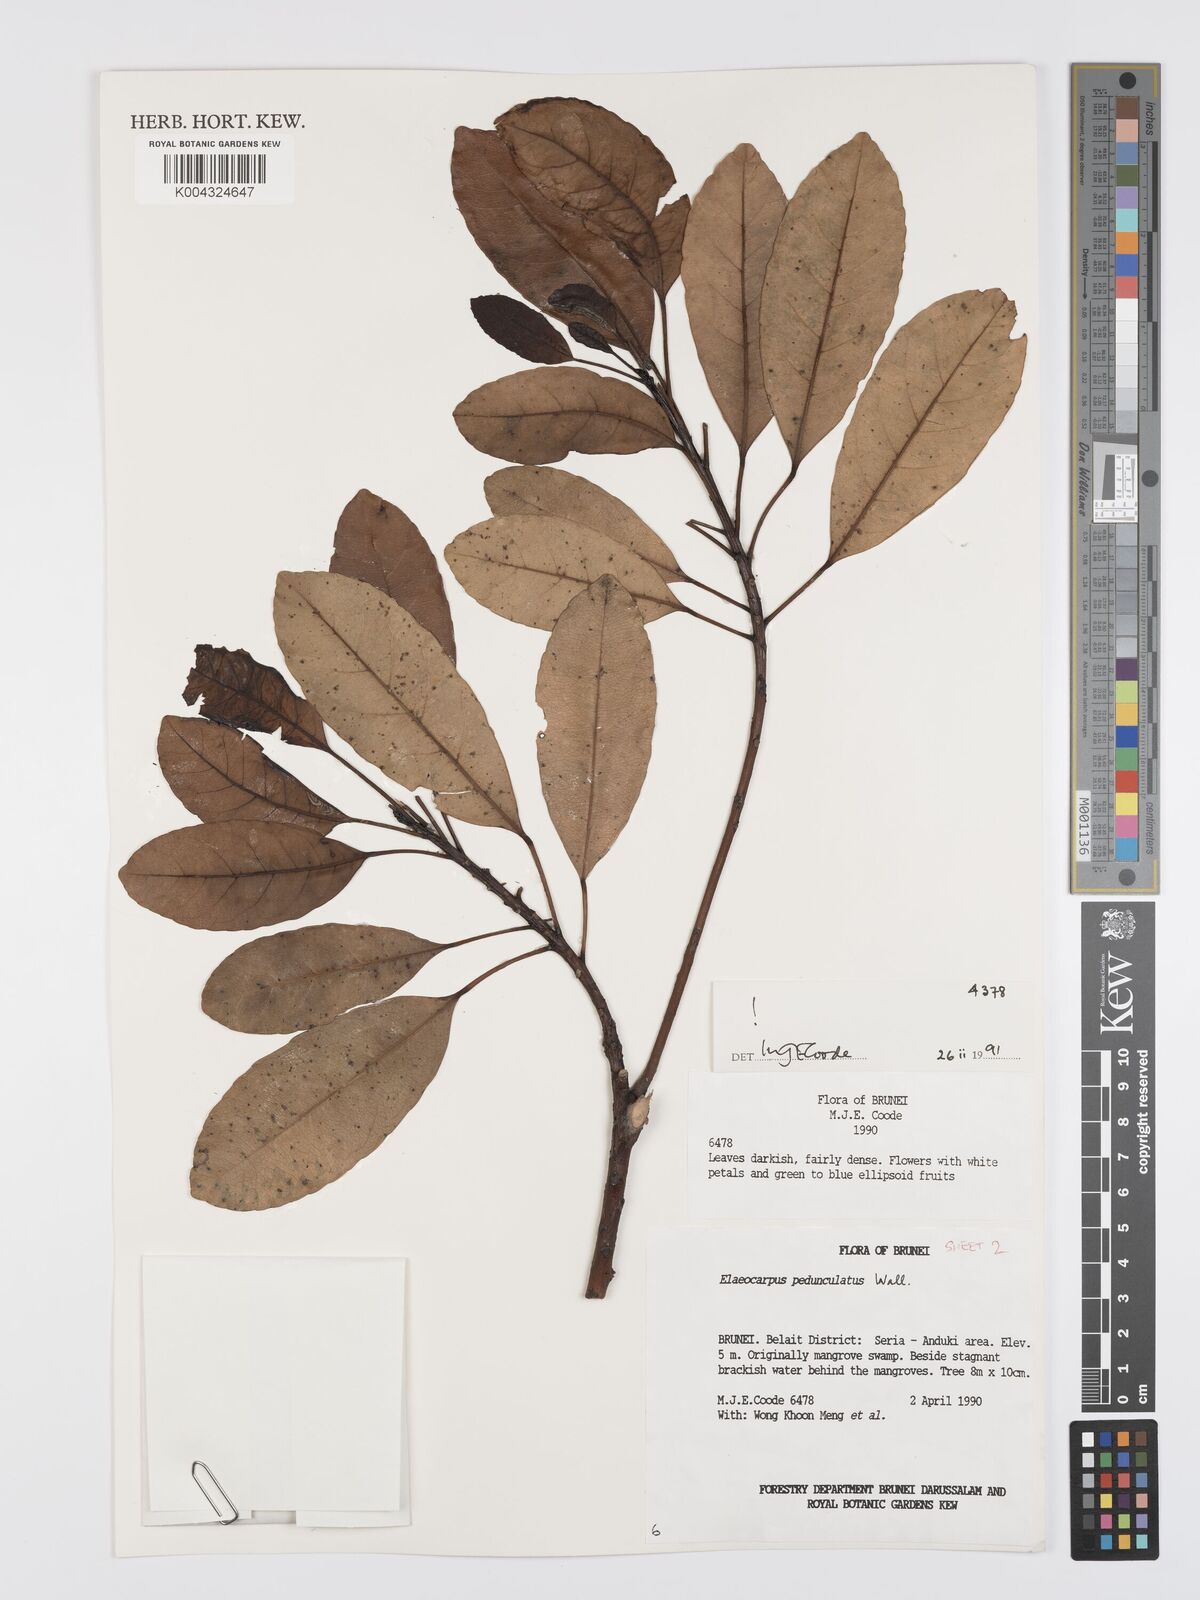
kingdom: Plantae
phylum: Tracheophyta
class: Magnoliopsida
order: Oxalidales
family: Elaeocarpaceae
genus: Elaeocarpus
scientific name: Elaeocarpus pedunculatus
